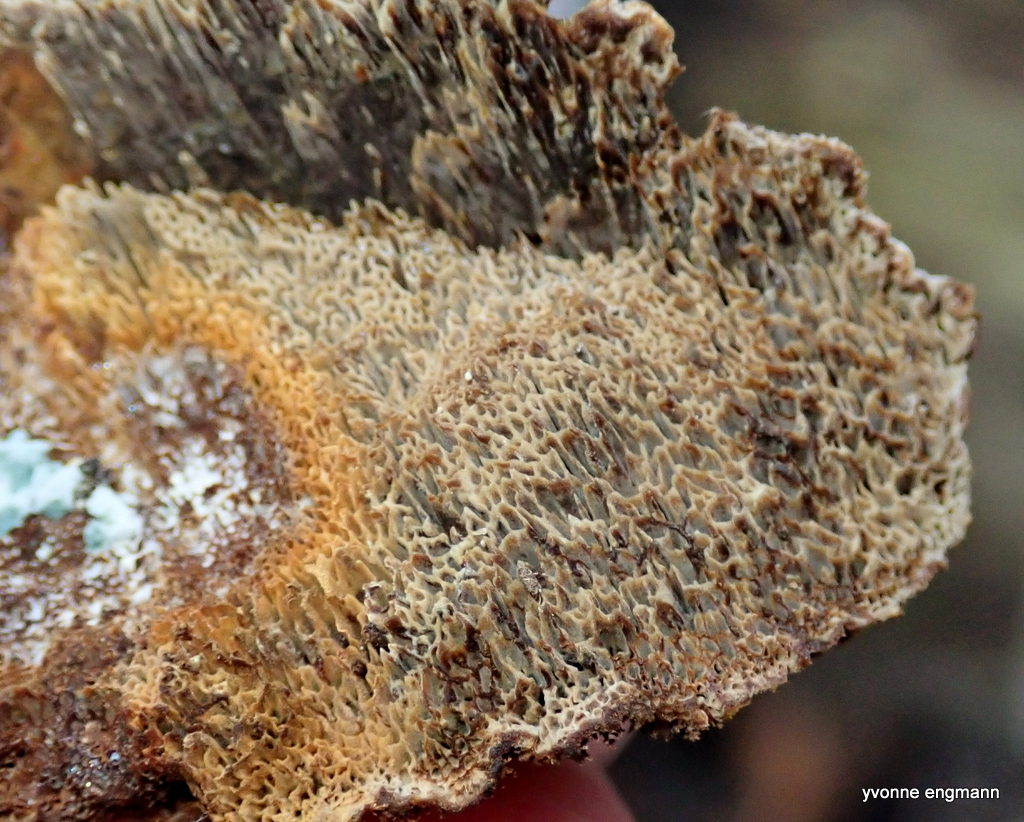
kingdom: Fungi
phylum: Basidiomycota
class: Agaricomycetes
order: Hymenochaetales
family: Hymenochaetaceae
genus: Mensularia
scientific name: Mensularia nodulosa
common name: bøge-spejlporesvamp
